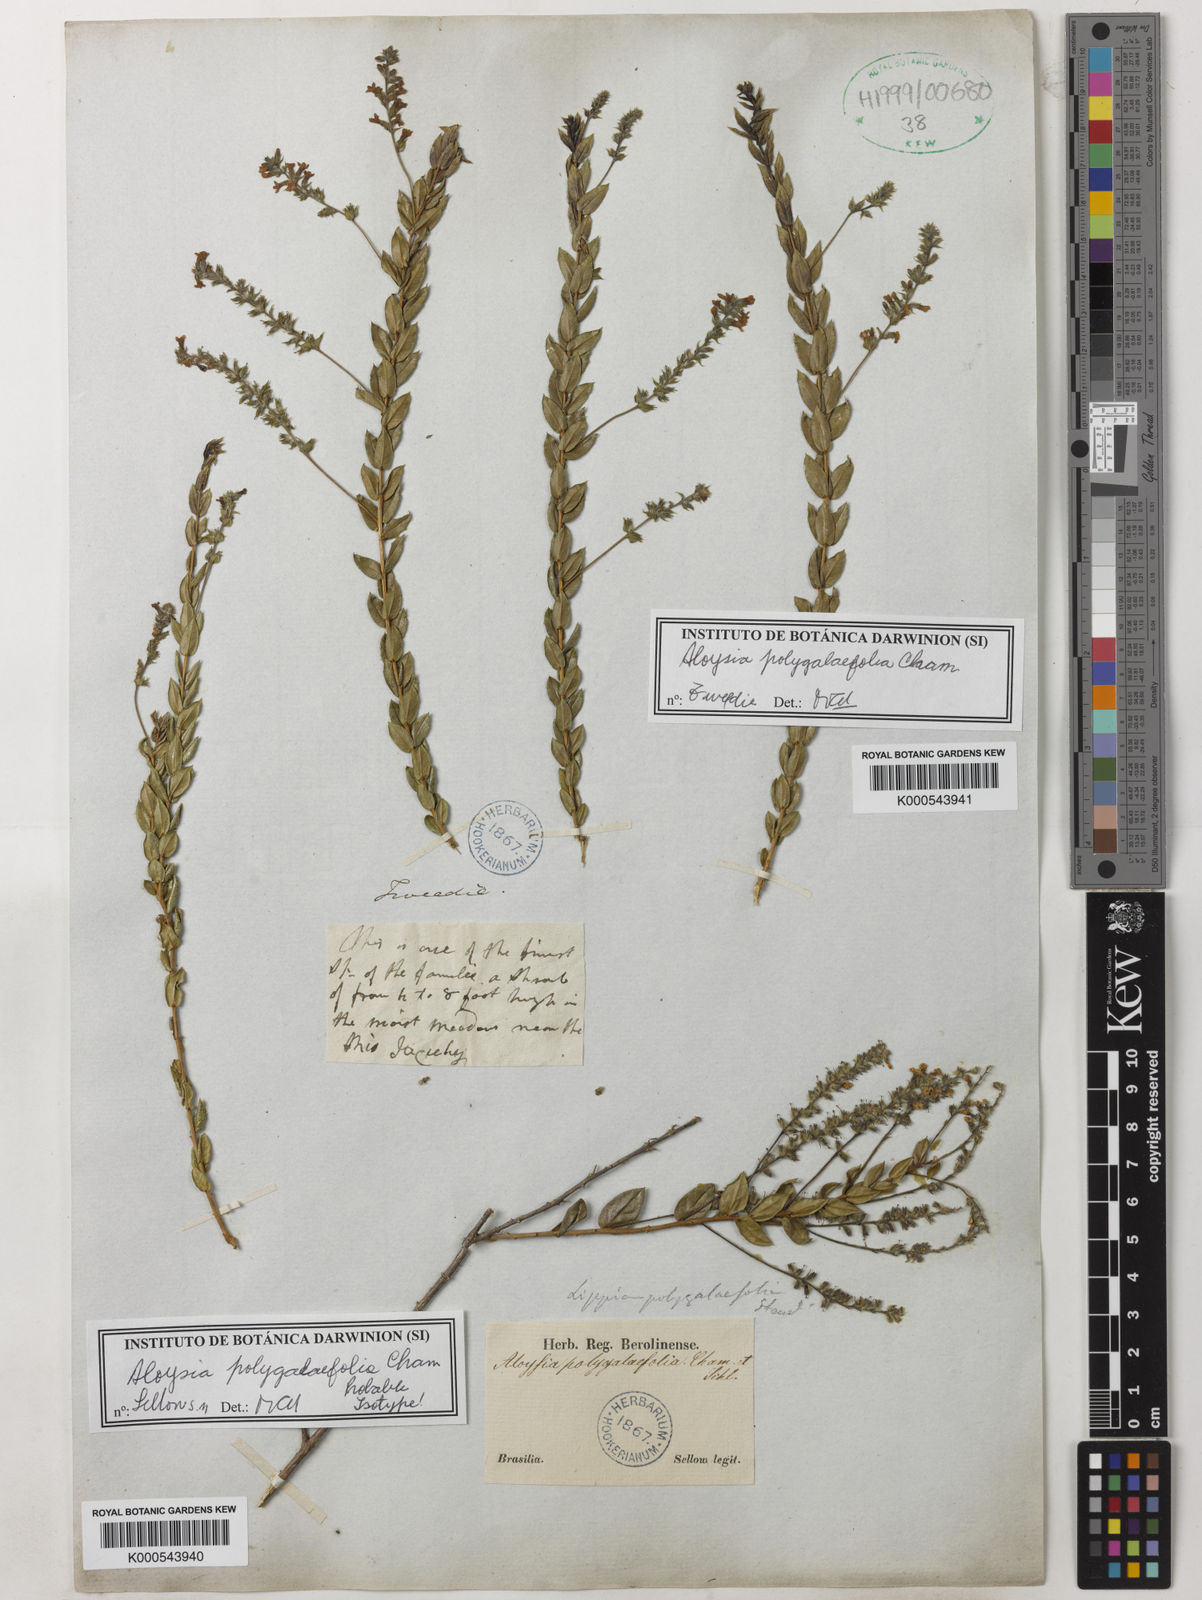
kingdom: Plantae
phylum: Tracheophyta
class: Magnoliopsida
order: Lamiales
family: Verbenaceae
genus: Aloysia
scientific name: Aloysia polygalifolia
